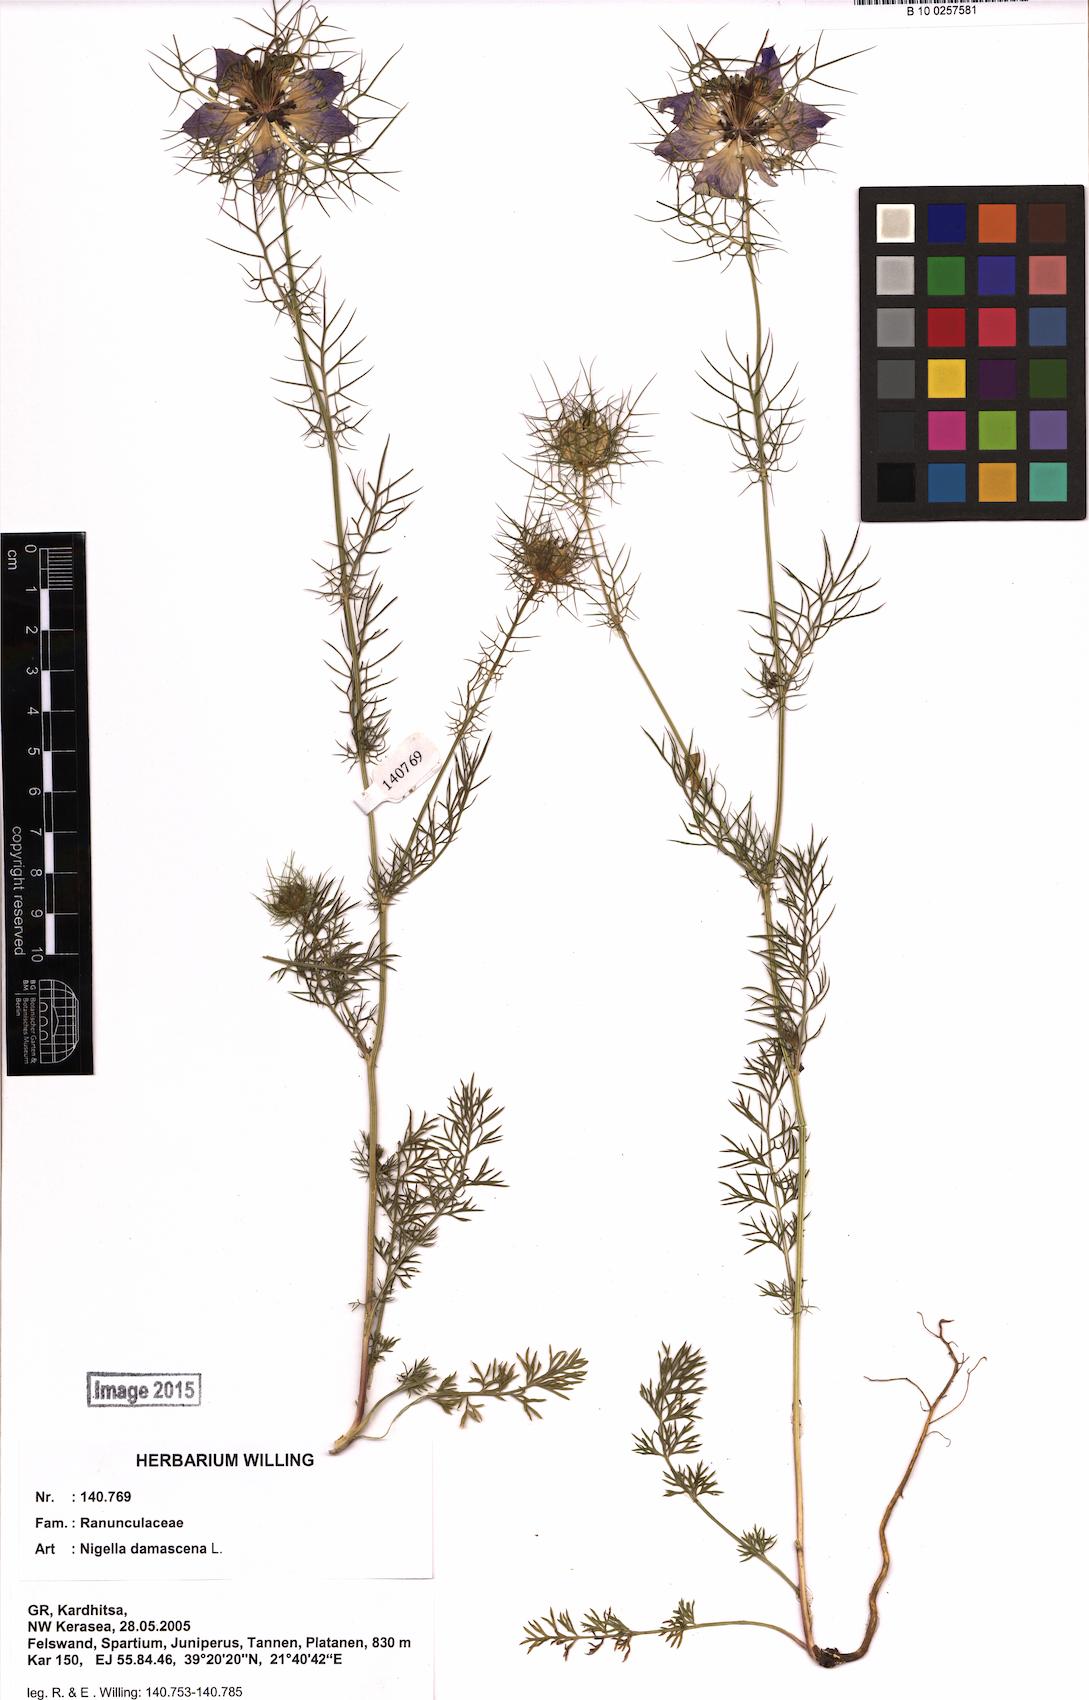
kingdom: Plantae
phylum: Tracheophyta
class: Magnoliopsida
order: Ranunculales
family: Ranunculaceae
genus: Nigella
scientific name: Nigella damascena
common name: Love-in-a-mist
